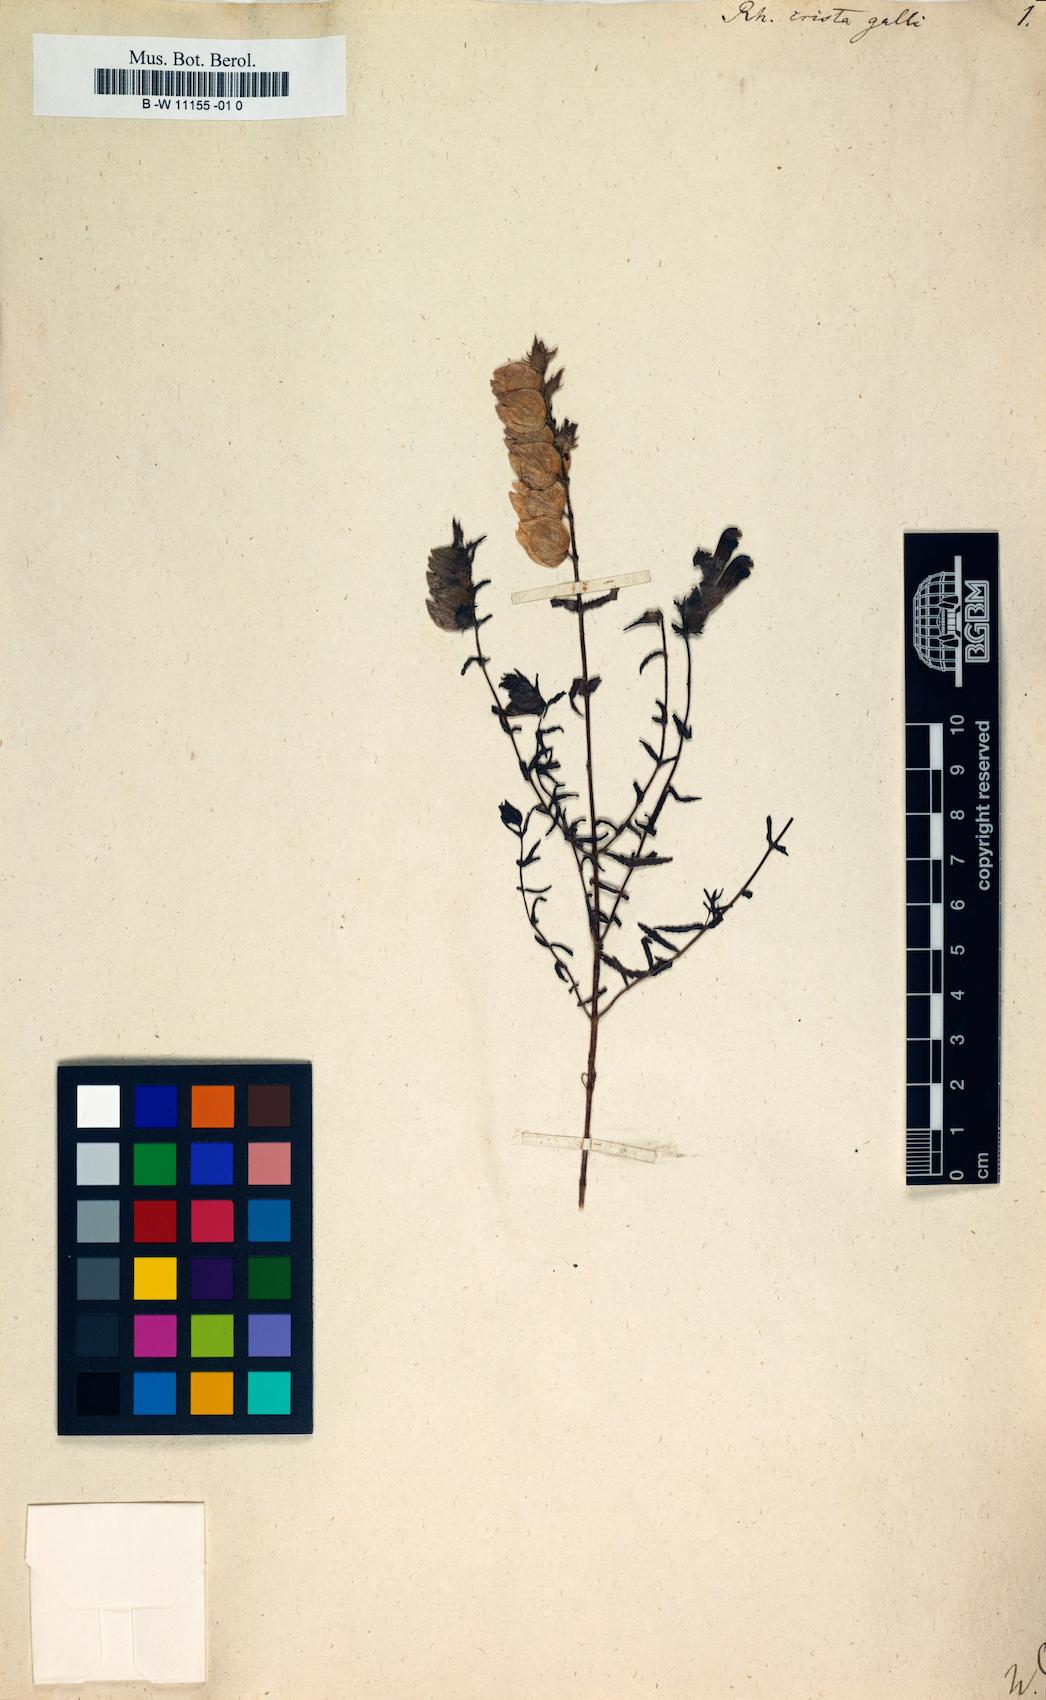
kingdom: Plantae
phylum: Tracheophyta
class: Magnoliopsida
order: Lamiales
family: Orobanchaceae
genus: Rhinanthus
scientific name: Rhinanthus
